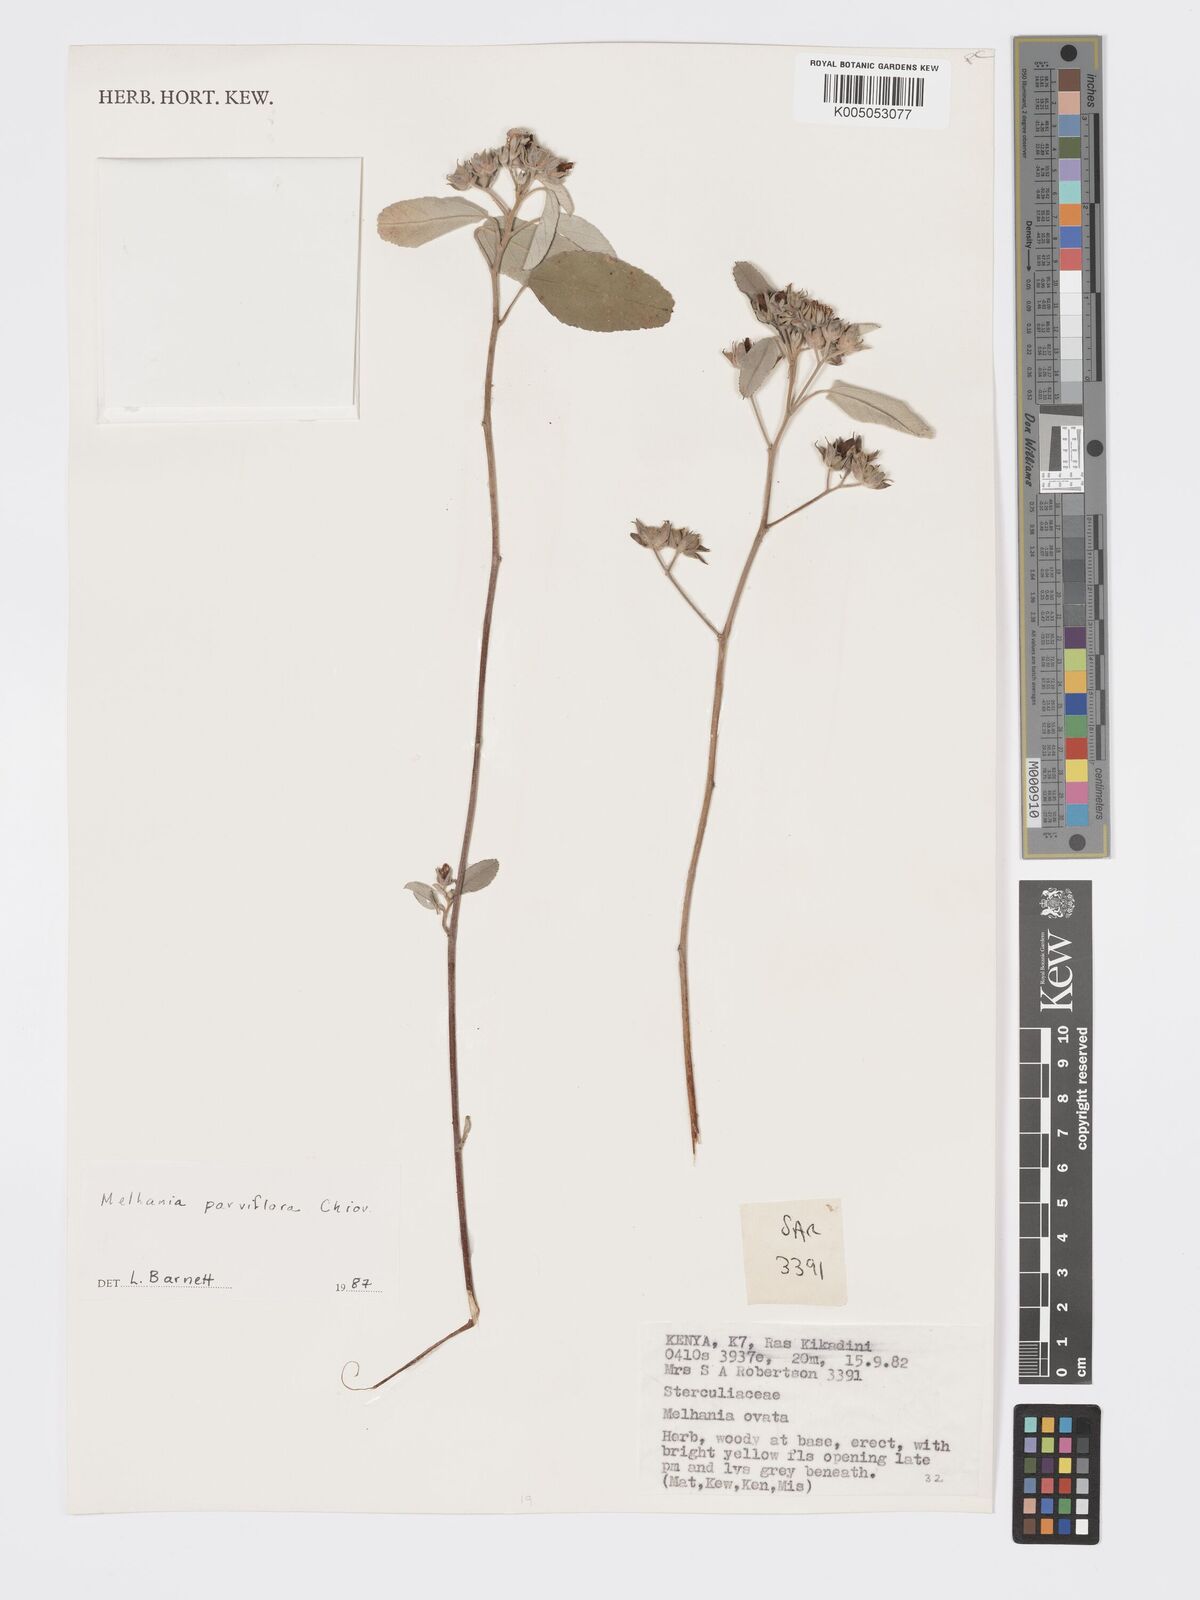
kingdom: Plantae
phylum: Tracheophyta
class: Magnoliopsida
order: Malvales
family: Malvaceae
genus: Melhania
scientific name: Melhania parviflora
